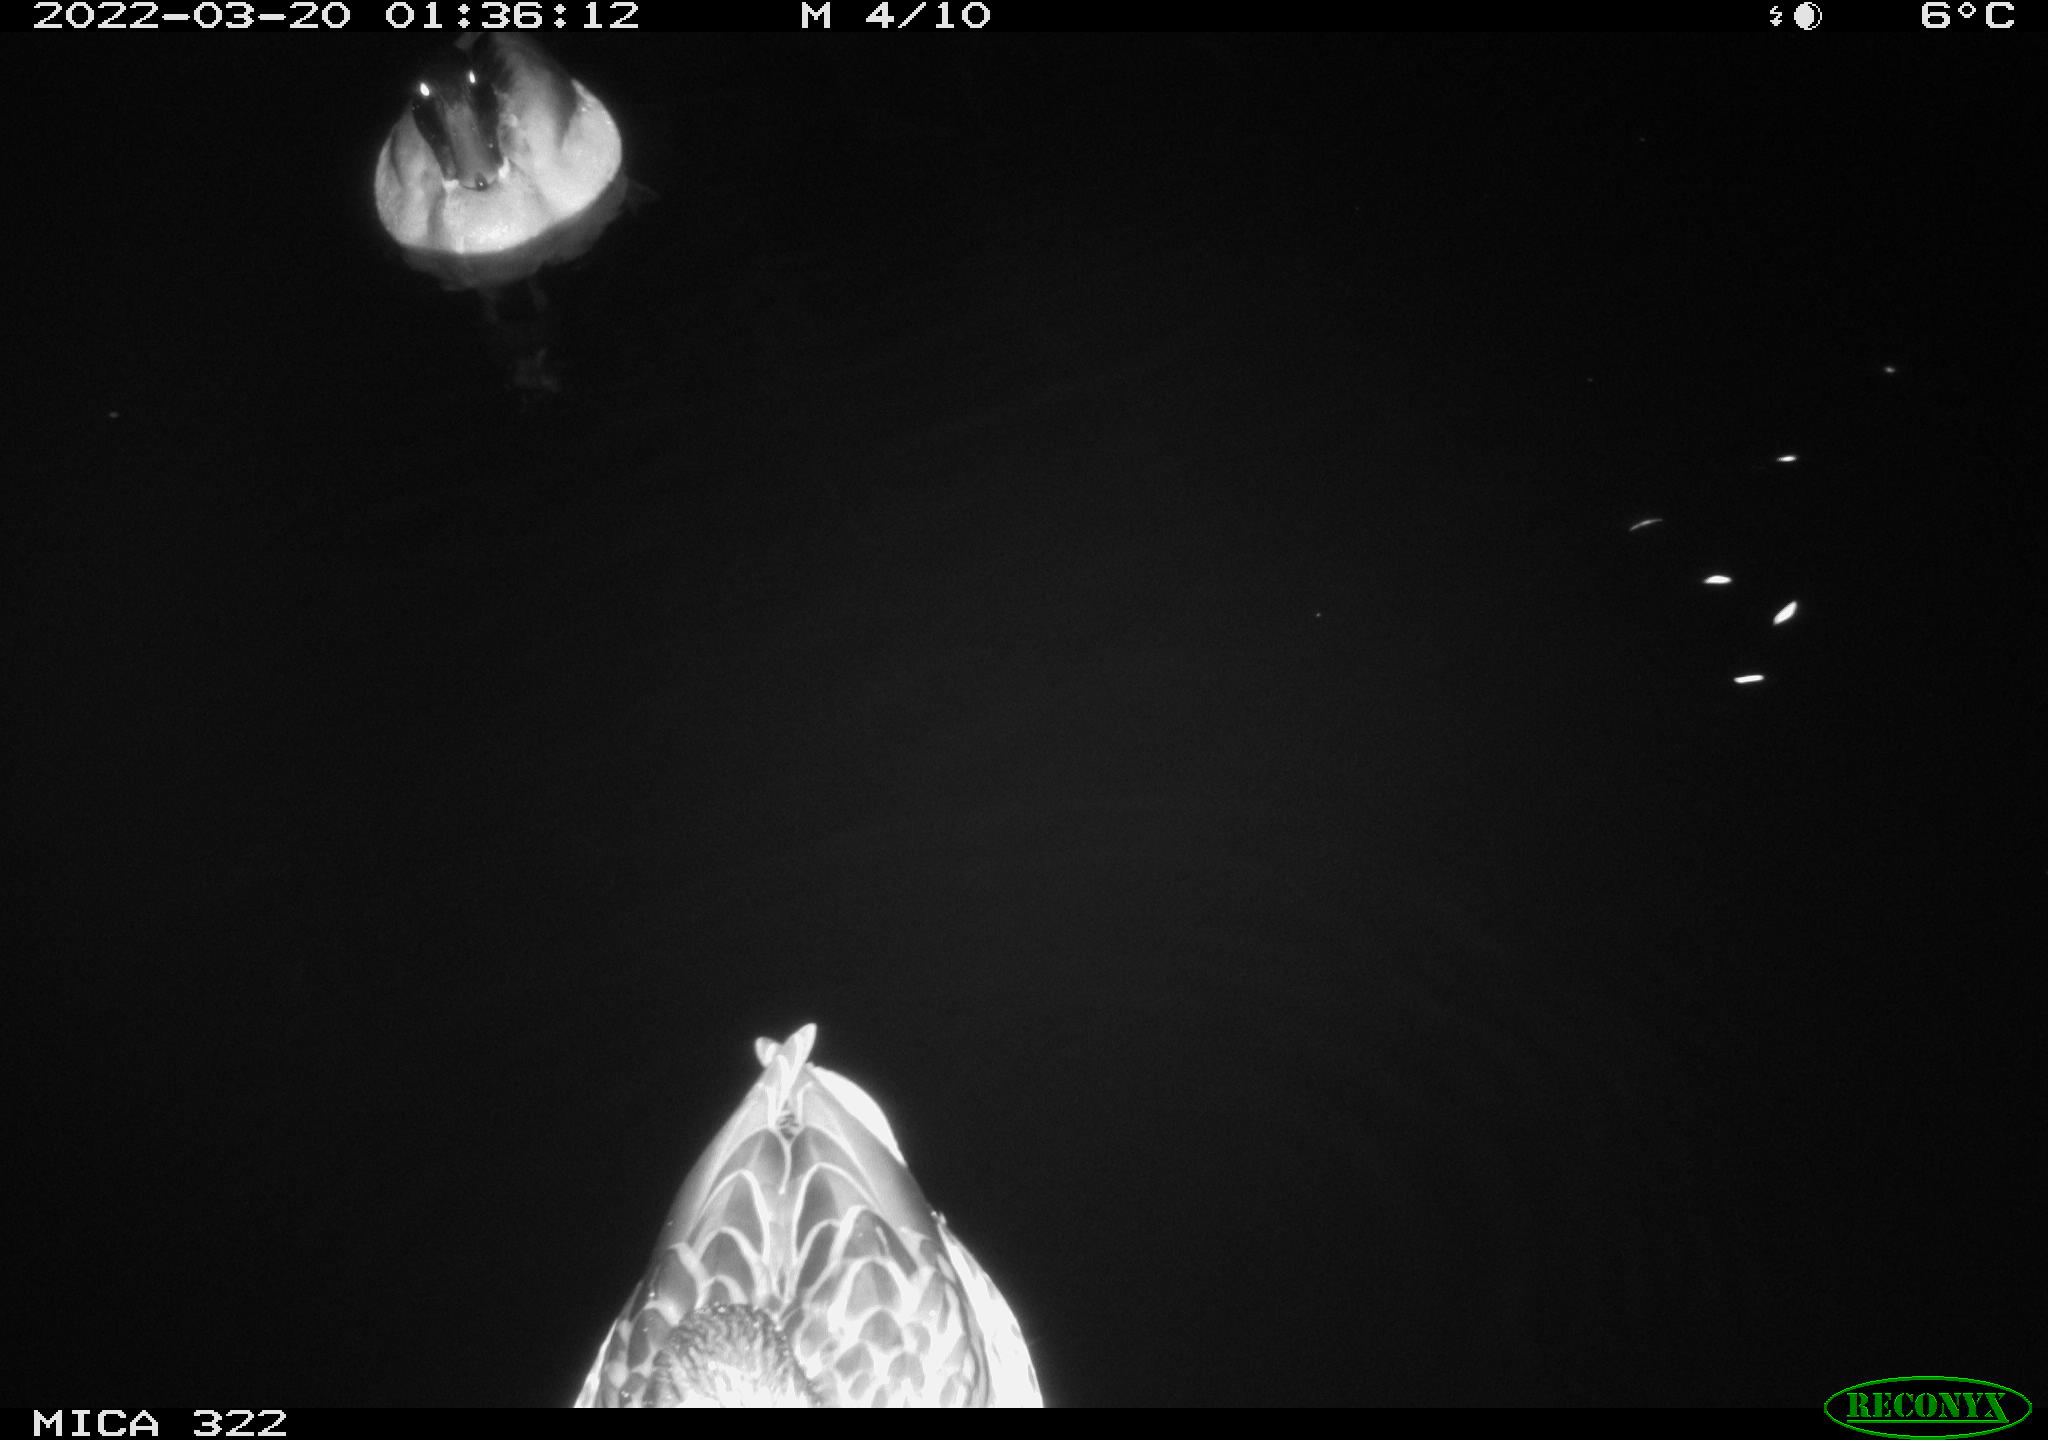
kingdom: Animalia
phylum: Chordata
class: Aves
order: Anseriformes
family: Anatidae
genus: Anas
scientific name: Anas platyrhynchos
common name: Mallard
